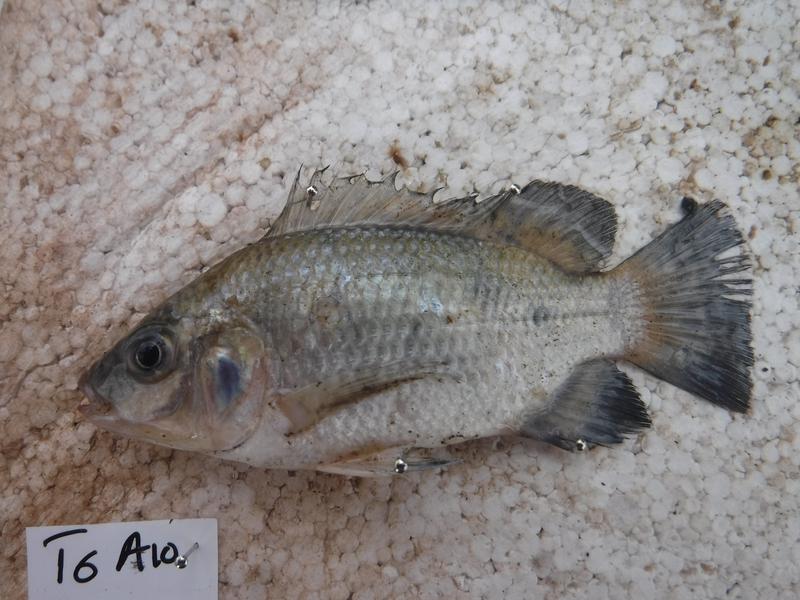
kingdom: Animalia
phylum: Chordata
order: Perciformes
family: Cichlidae
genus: Oreochromis
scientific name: Oreochromis urolepis
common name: Wami tilapia
